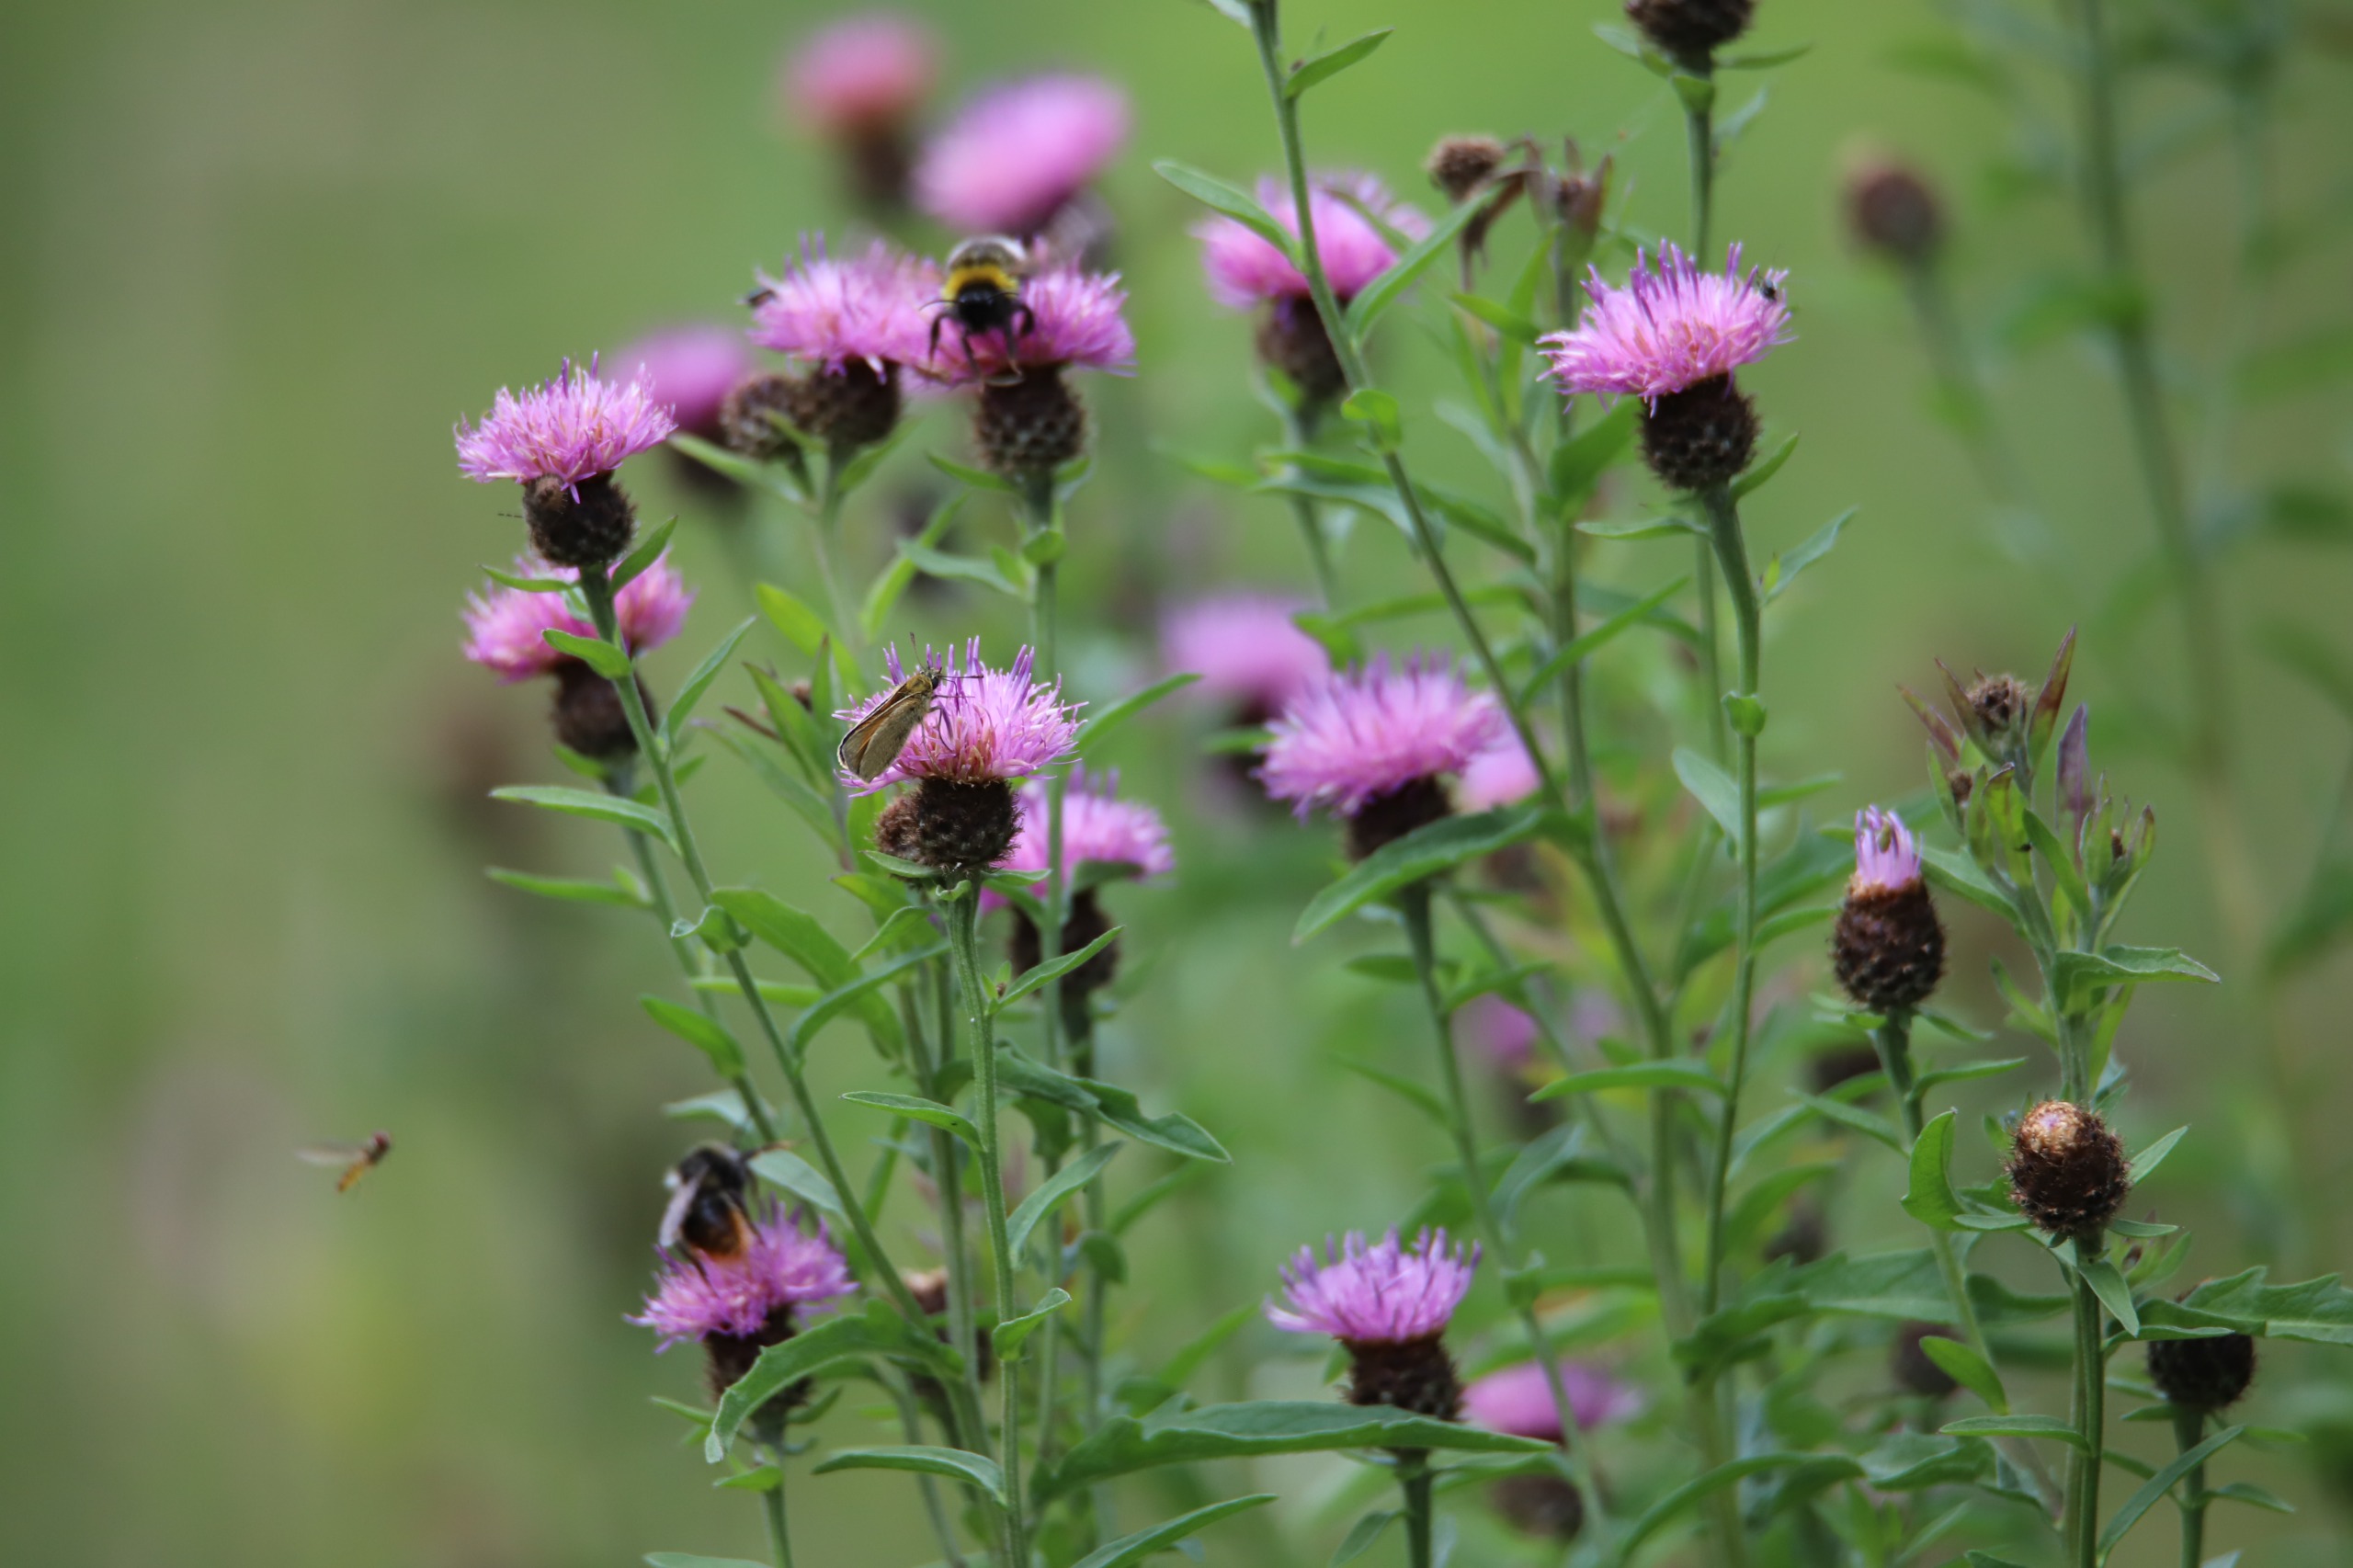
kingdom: Plantae
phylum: Tracheophyta
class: Magnoliopsida
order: Asterales
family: Asteraceae
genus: Centaurea
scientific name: Centaurea nigra
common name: Sorthoved-knopurt
